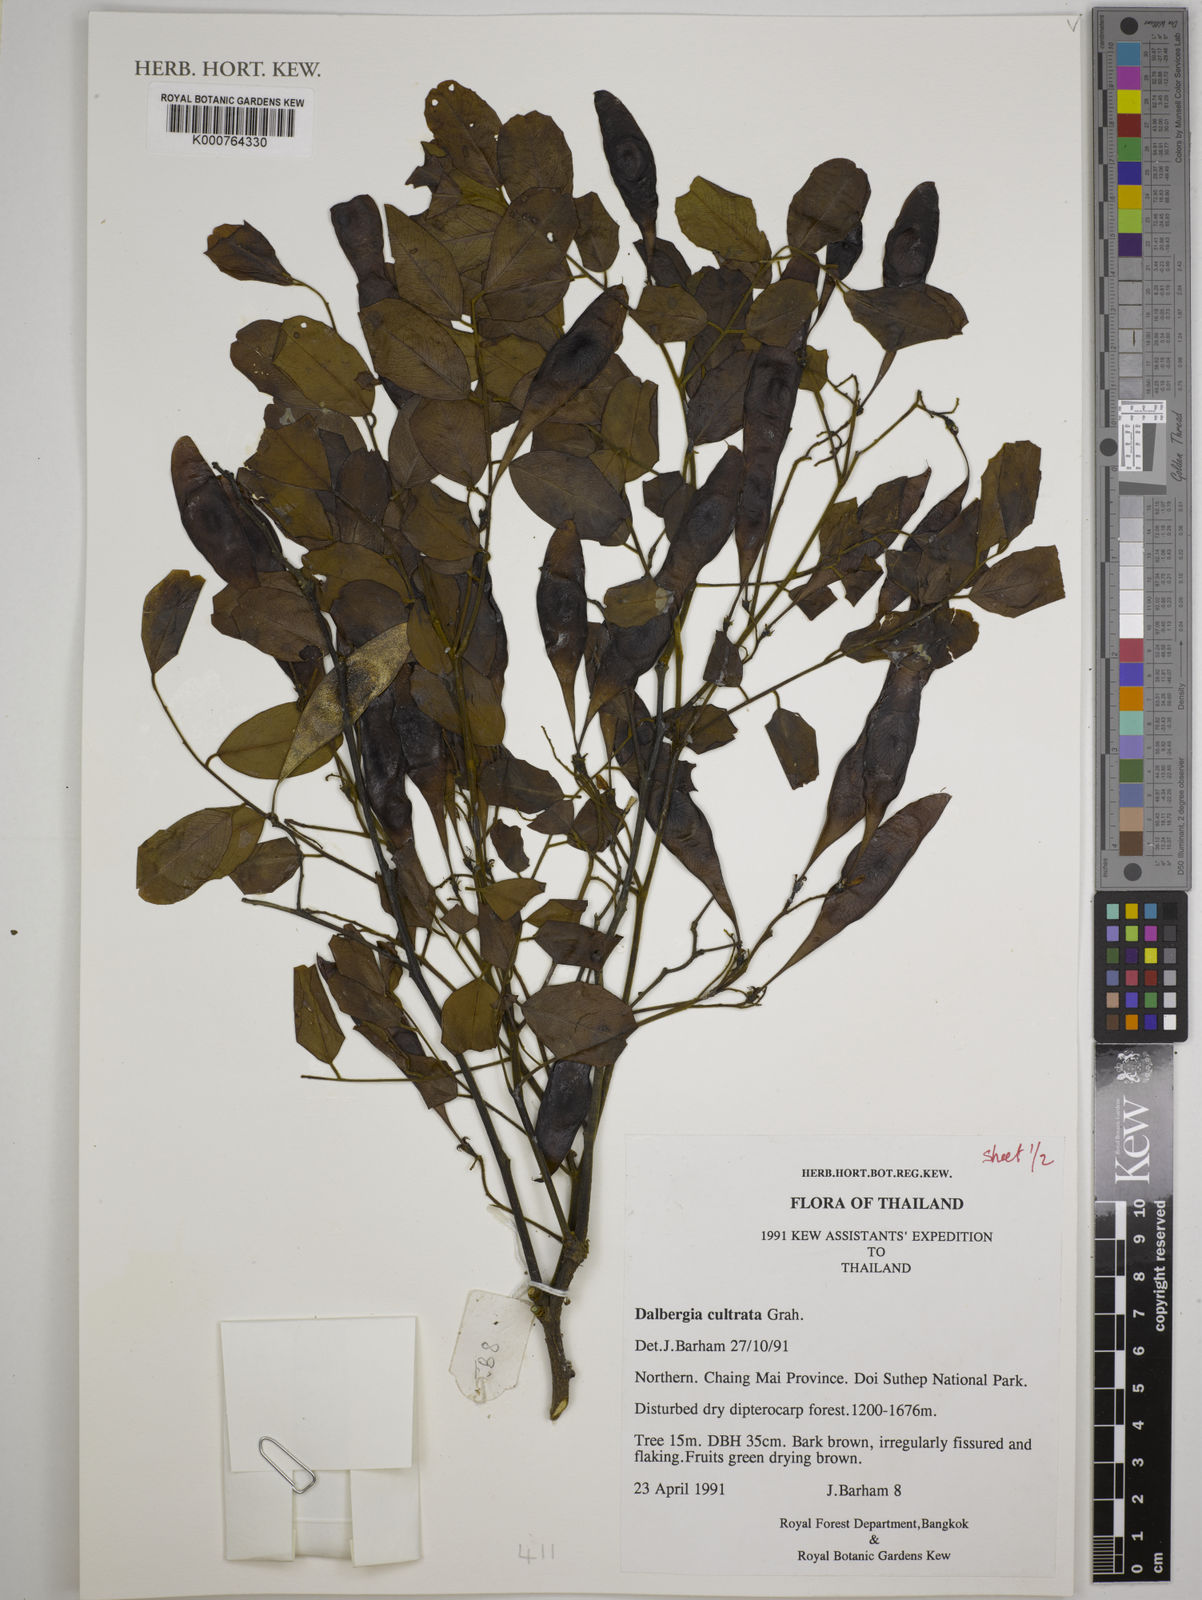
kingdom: Plantae
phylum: Tracheophyta
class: Magnoliopsida
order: Fabales
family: Fabaceae
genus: Dalbergia
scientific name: Dalbergia
